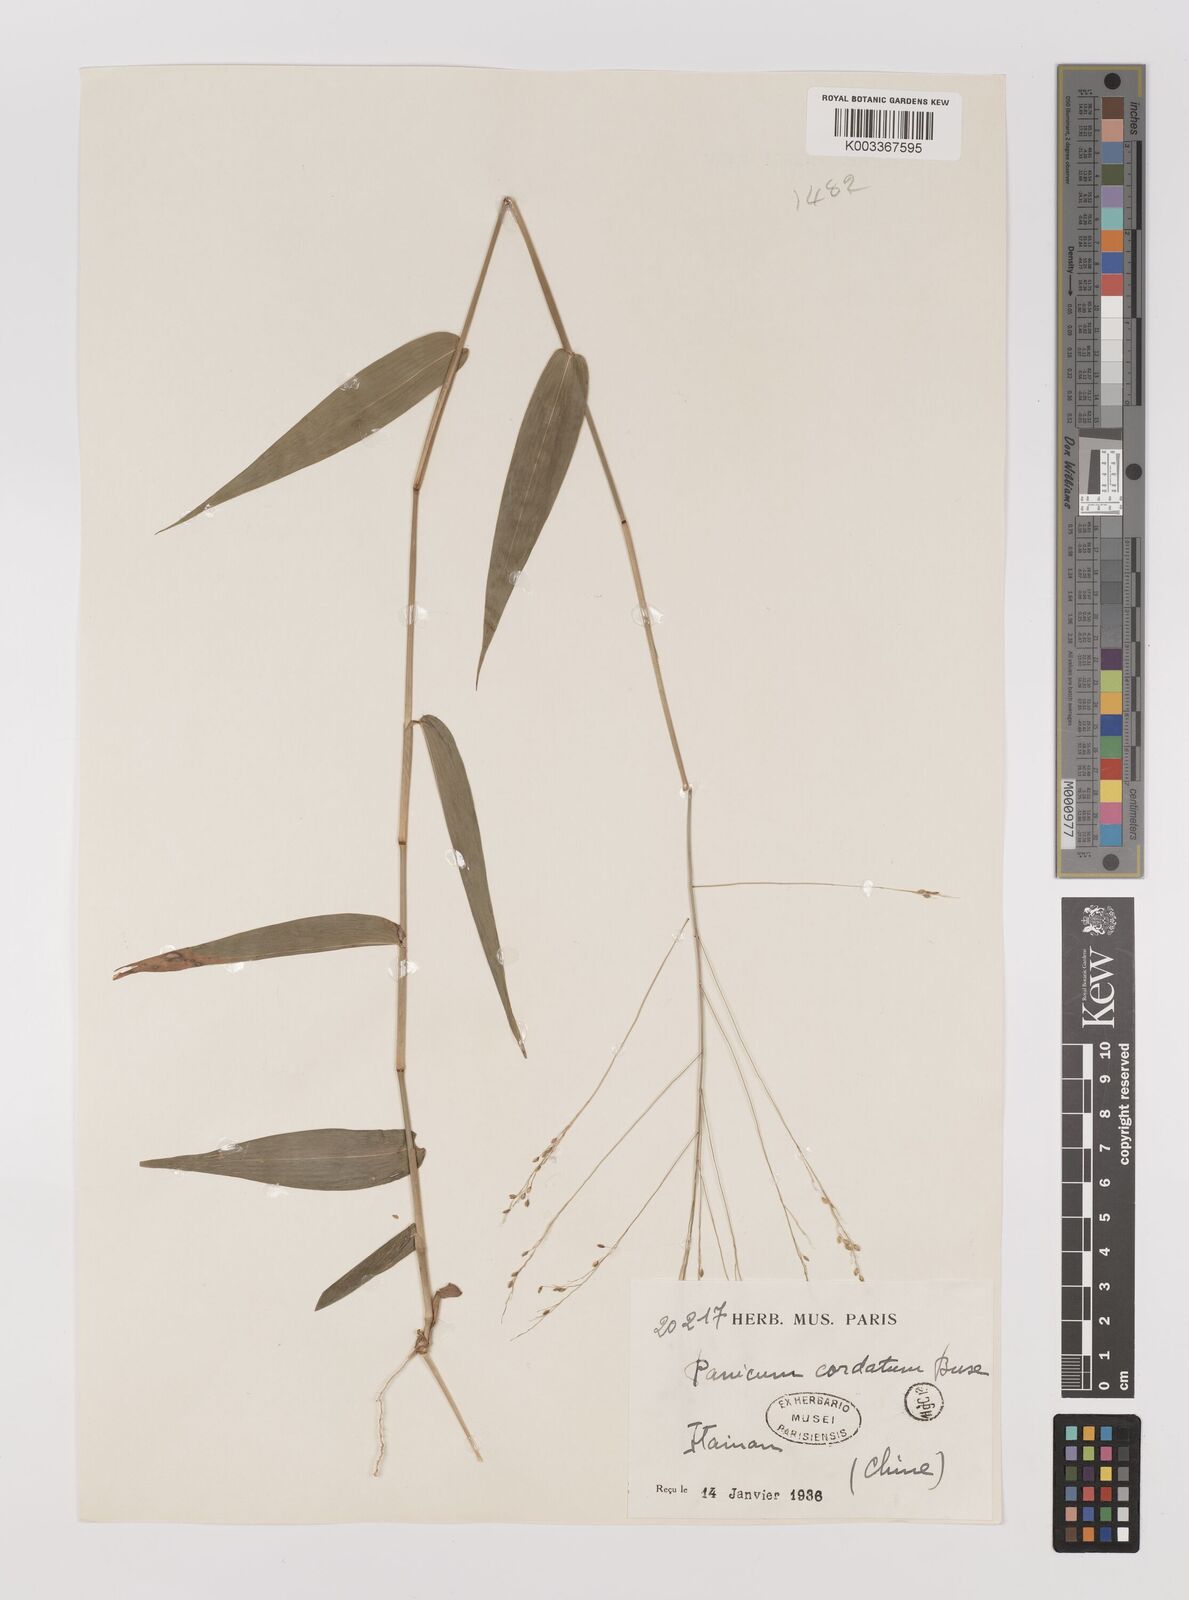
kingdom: Plantae
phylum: Tracheophyta
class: Liliopsida
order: Poales
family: Poaceae
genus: Panicum
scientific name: Panicum notatum
